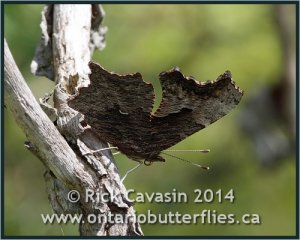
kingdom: Animalia
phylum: Arthropoda
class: Insecta
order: Lepidoptera
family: Nymphalidae
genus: Polygonia
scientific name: Polygonia progne
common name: Gray Comma
